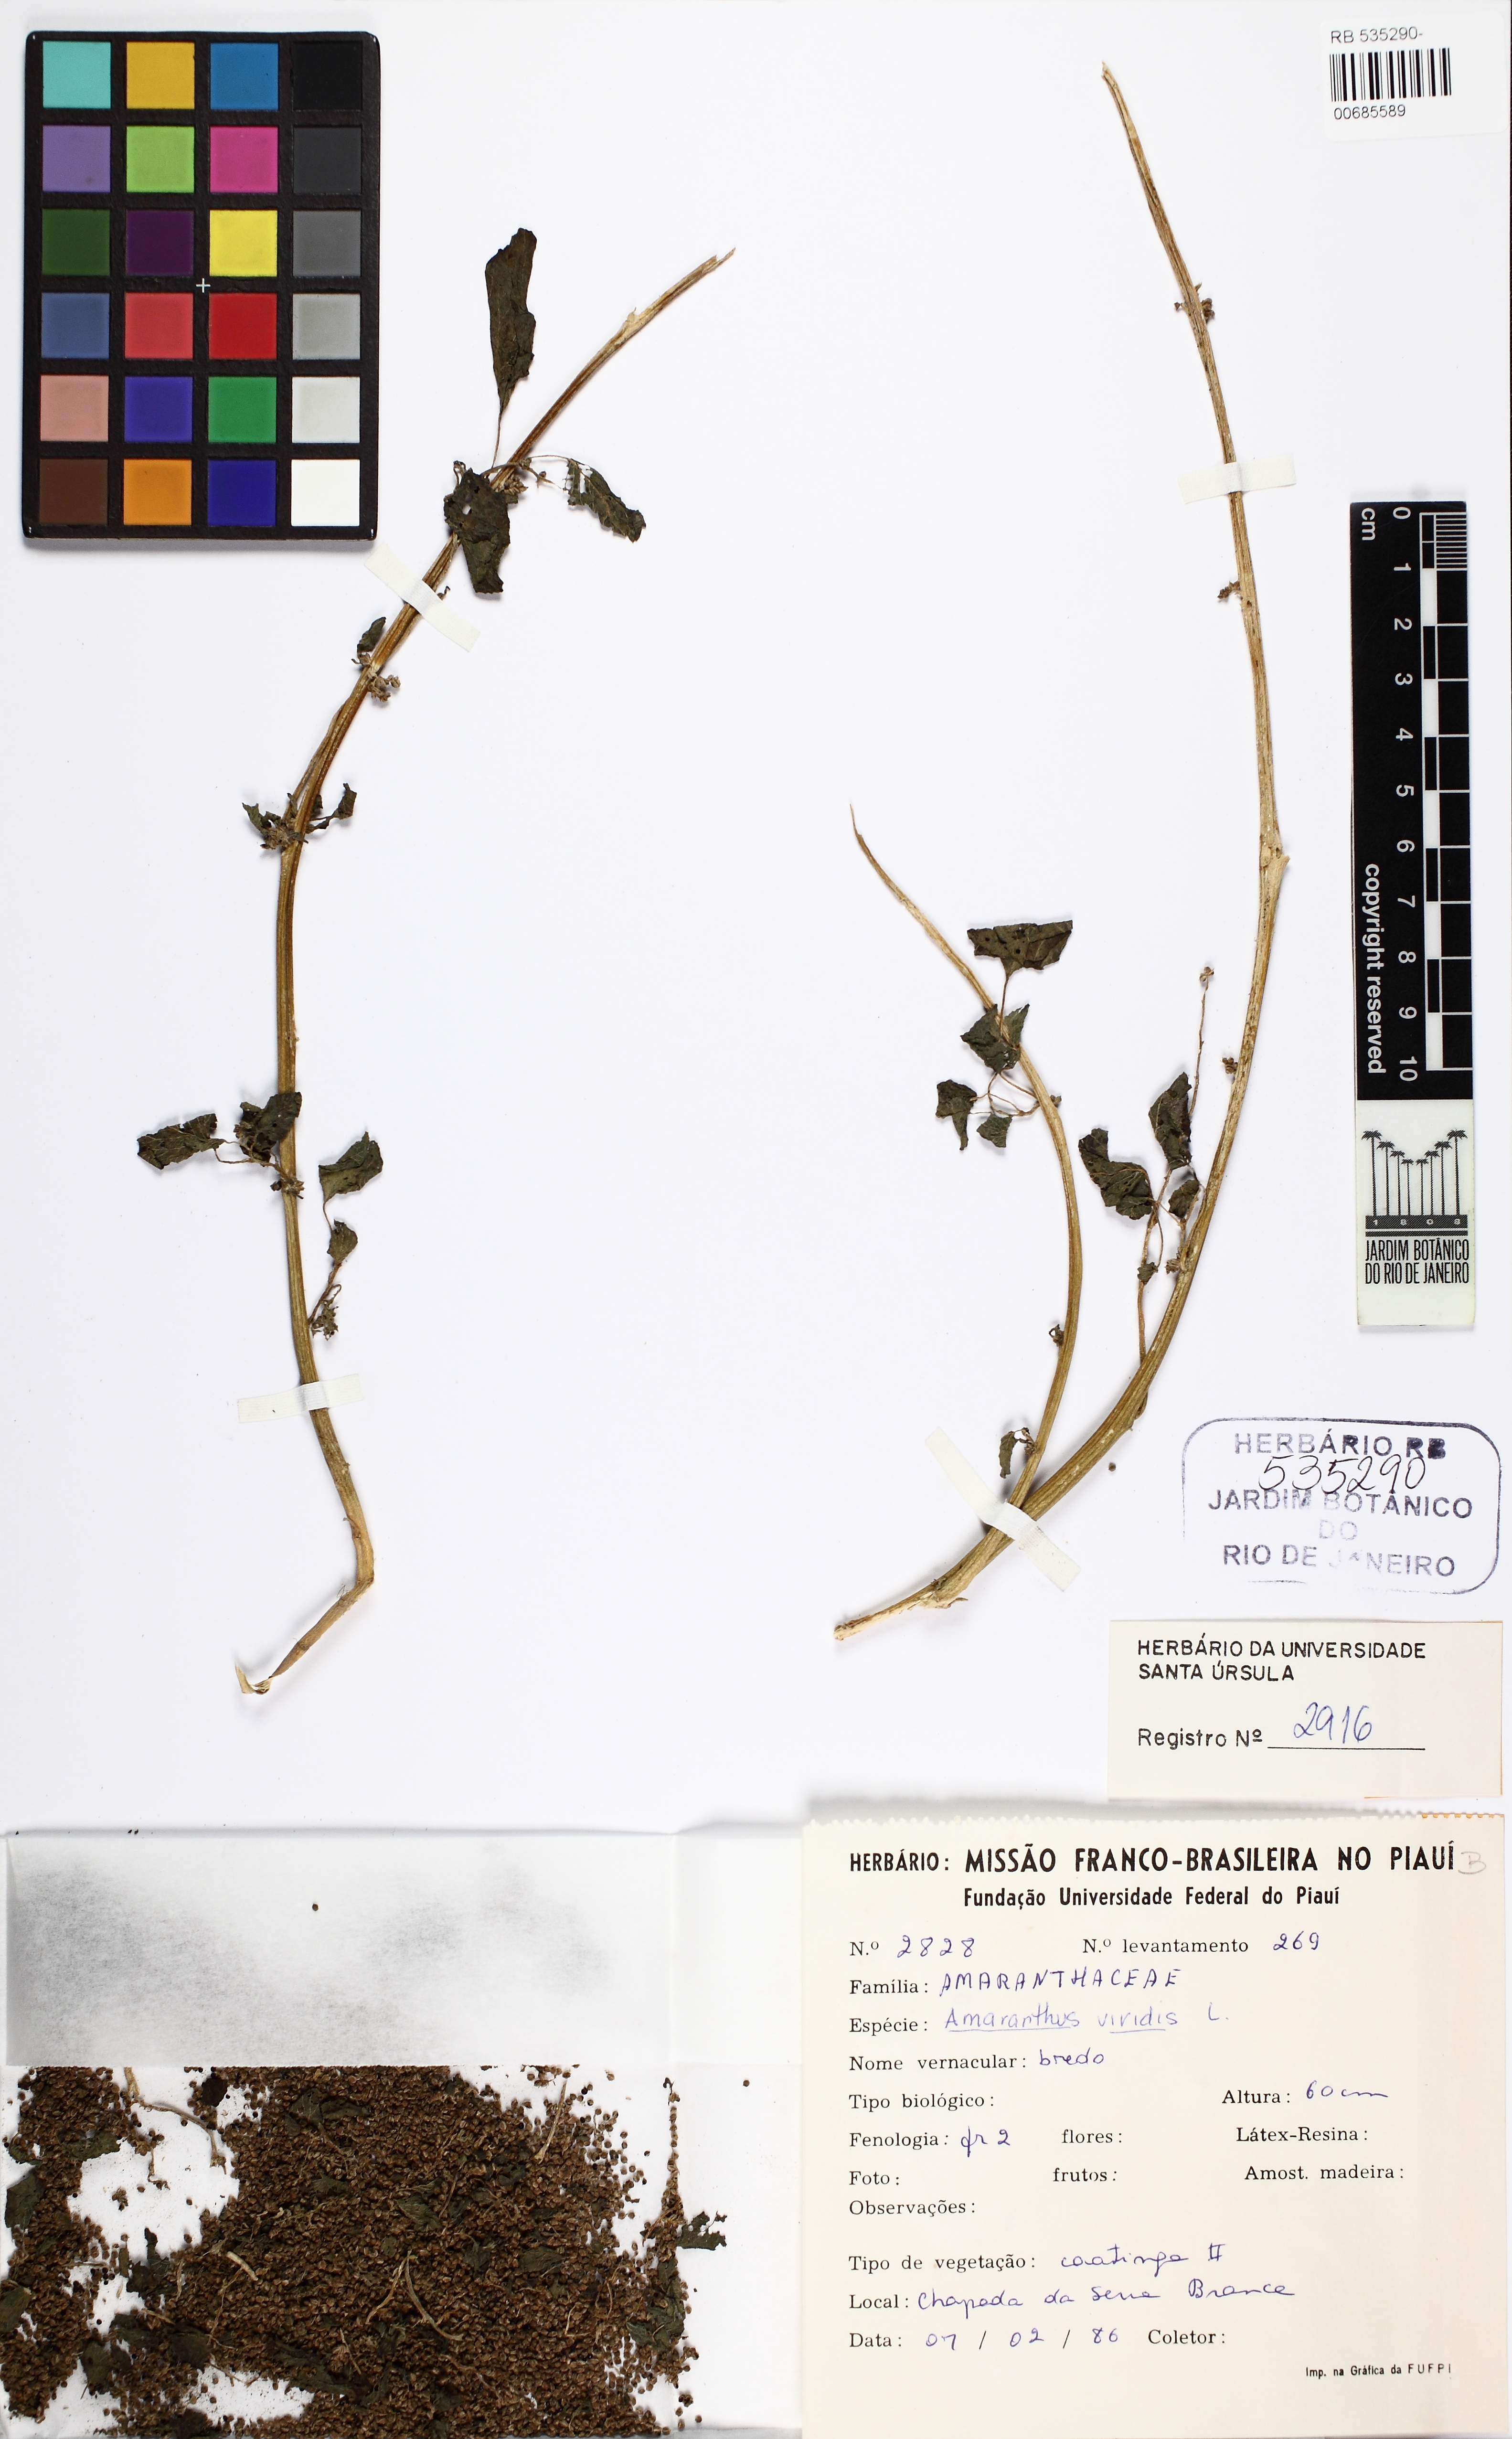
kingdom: Plantae
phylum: Tracheophyta
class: Magnoliopsida
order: Caryophyllales
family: Amaranthaceae
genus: Amaranthus
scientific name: Amaranthus viridis
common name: Slender amaranth
